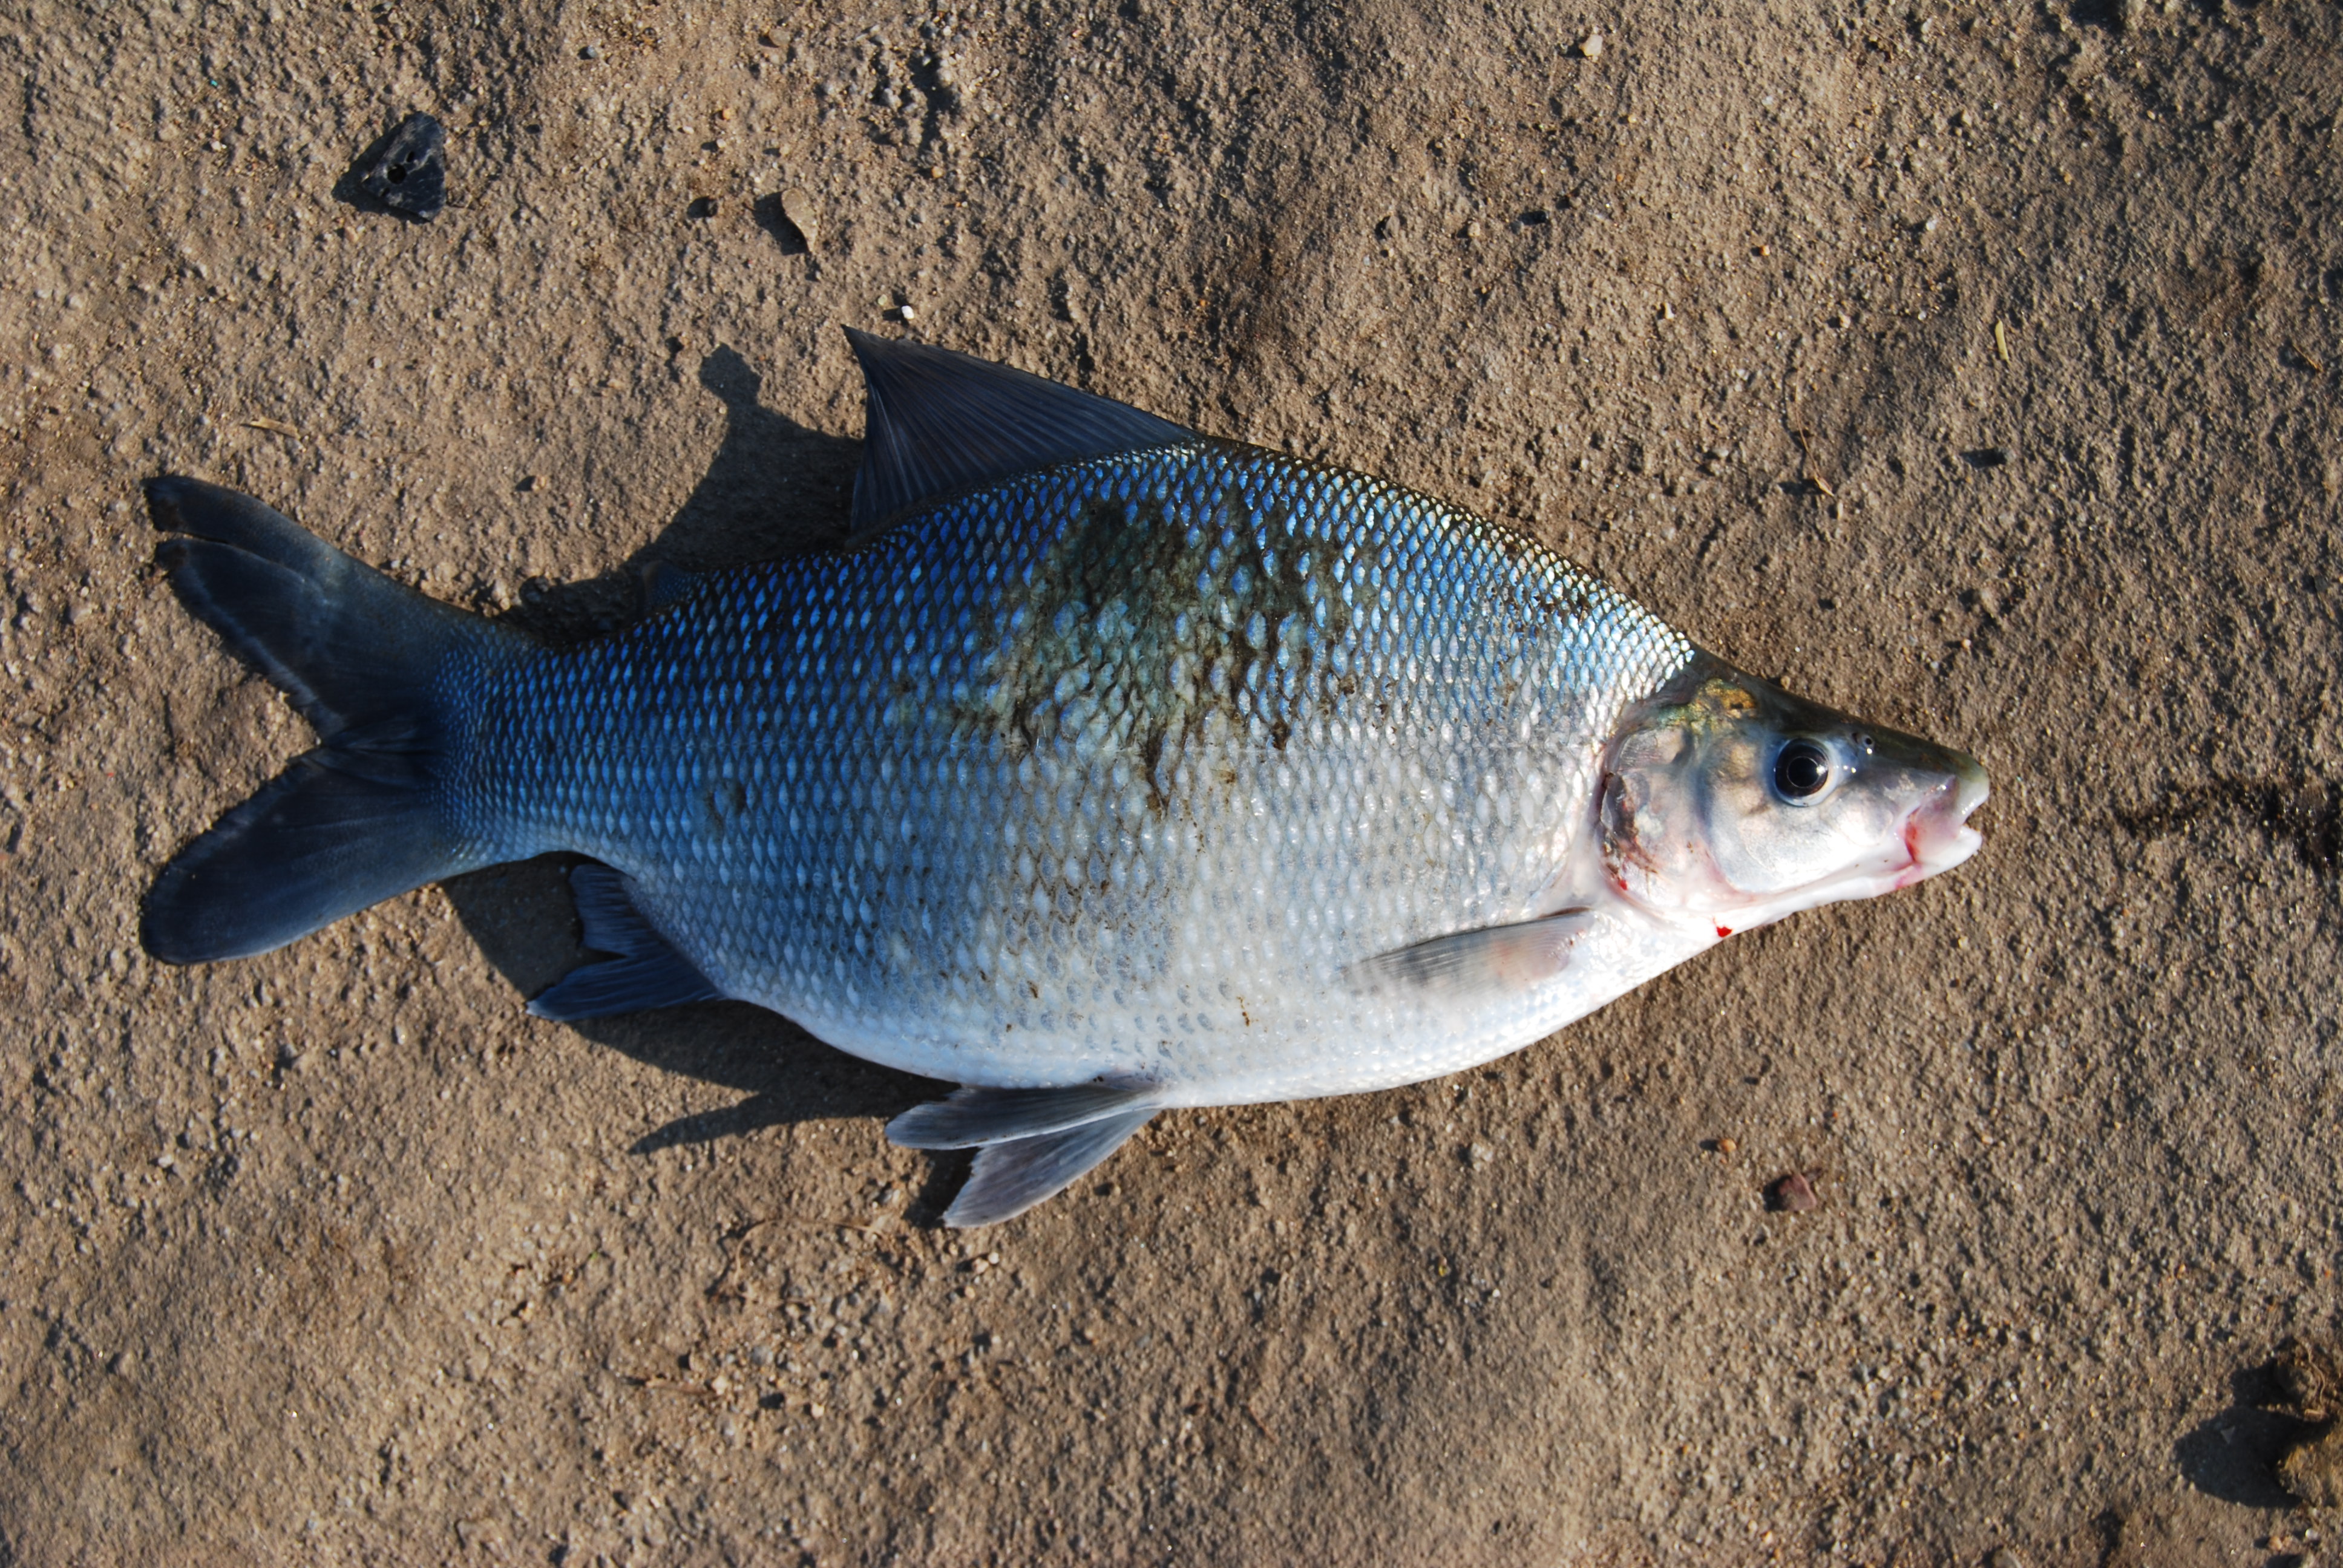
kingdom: Animalia
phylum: Chordata
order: Characiformes
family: Distichodontidae
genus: Distichodus
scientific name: Distichodus mossambicus
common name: Nkupe
